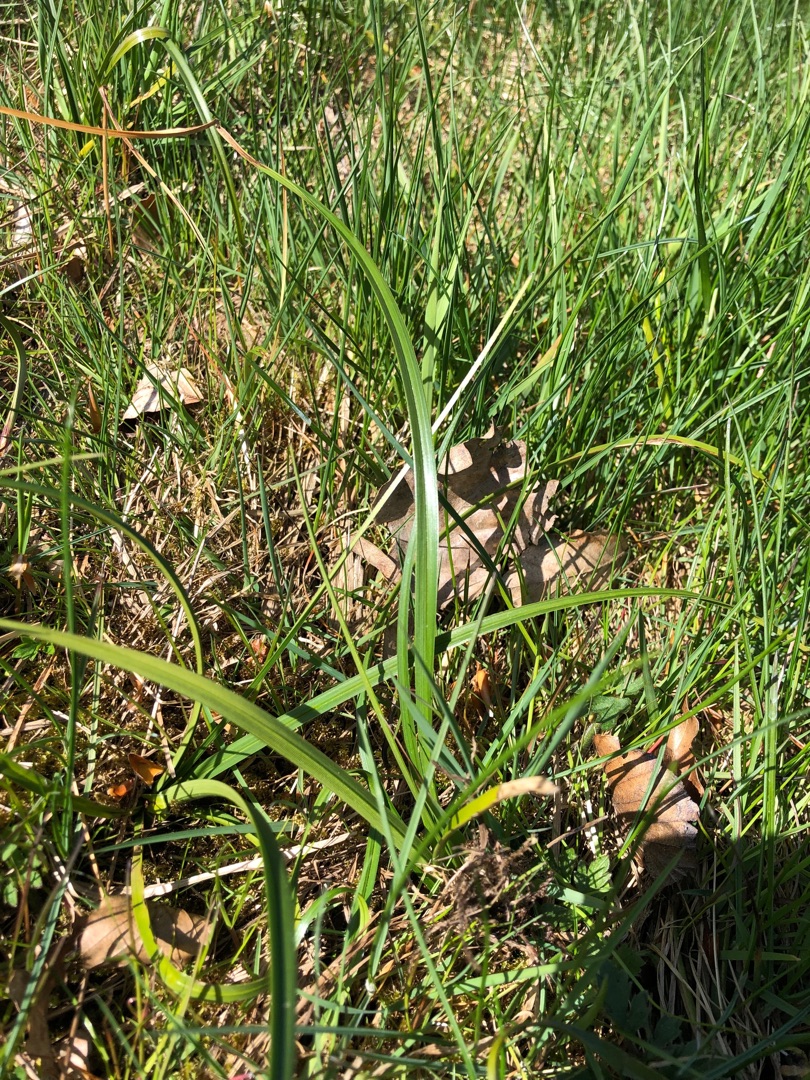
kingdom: Plantae
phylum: Tracheophyta
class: Liliopsida
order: Poales
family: Cyperaceae
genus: Eriophorum
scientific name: Eriophorum angustifolium
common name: Smalbladet kæruld
